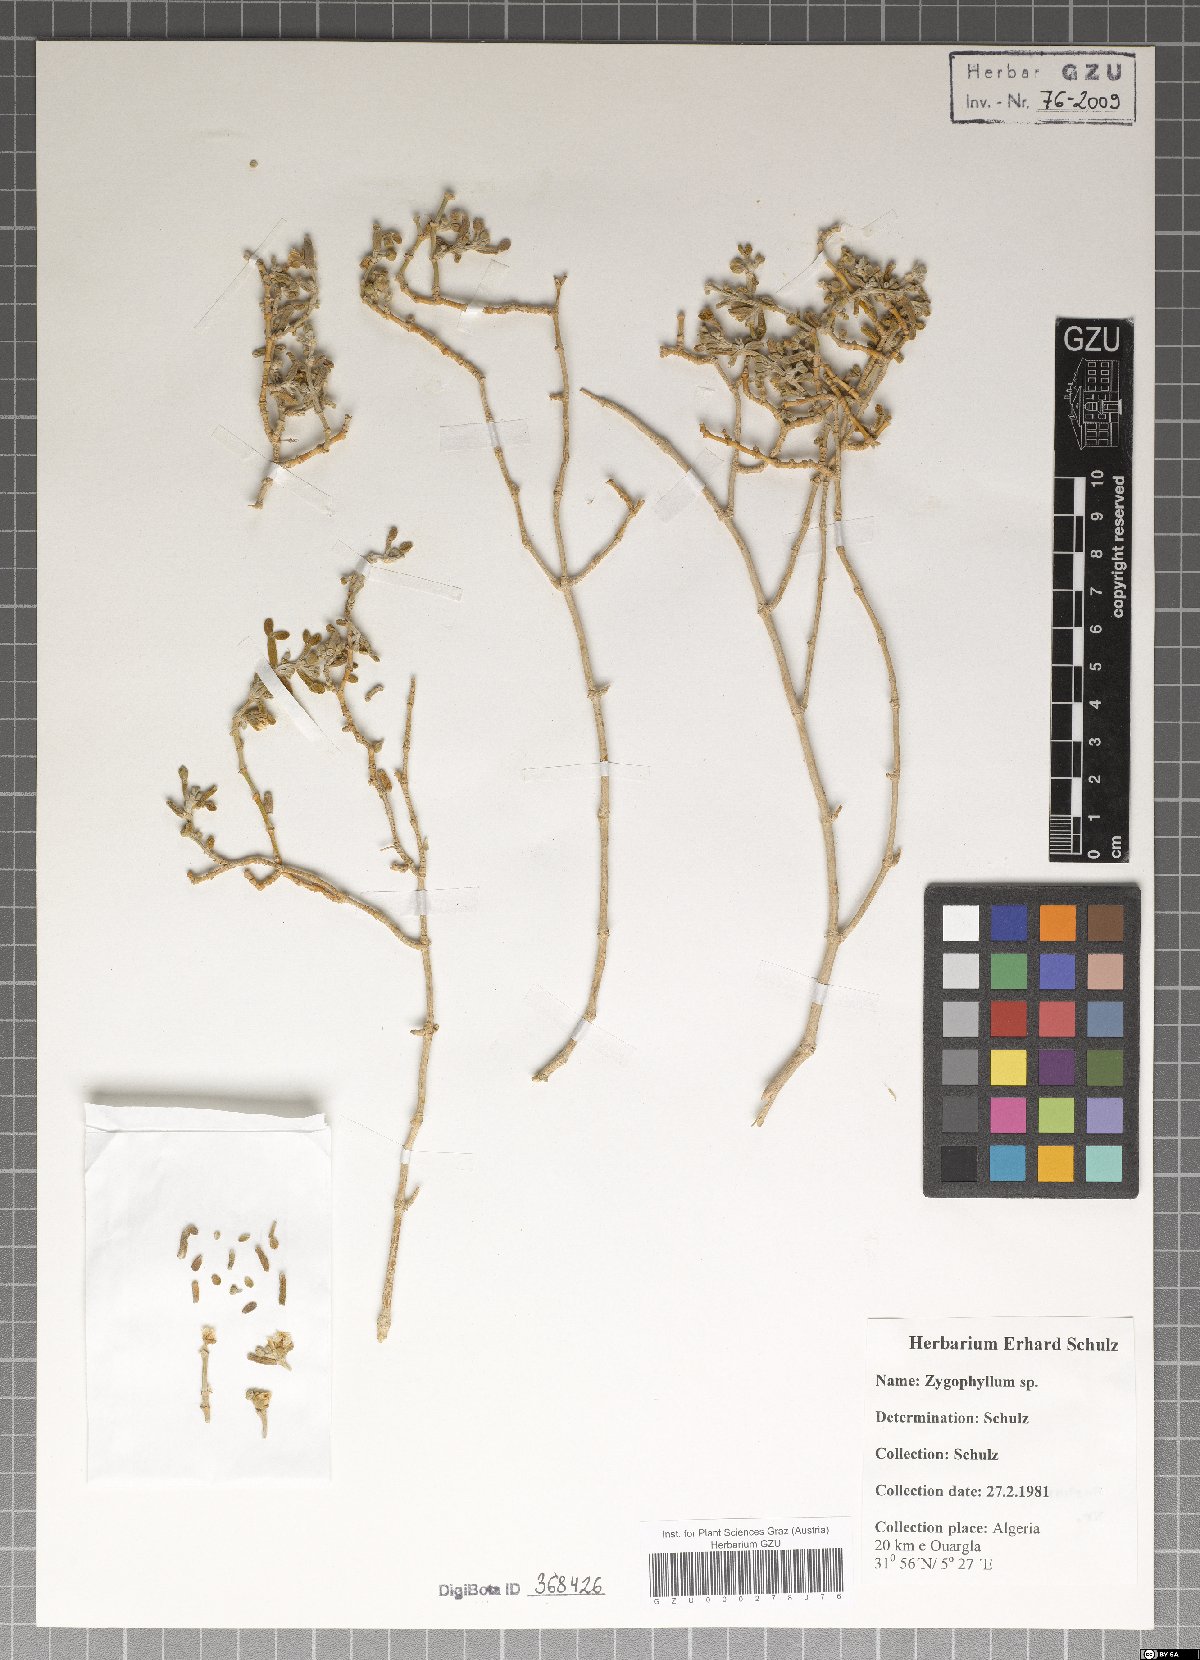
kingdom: Plantae
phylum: Tracheophyta
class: Magnoliopsida
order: Zygophyllales
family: Zygophyllaceae
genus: Zygophyllum
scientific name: Zygophyllum
